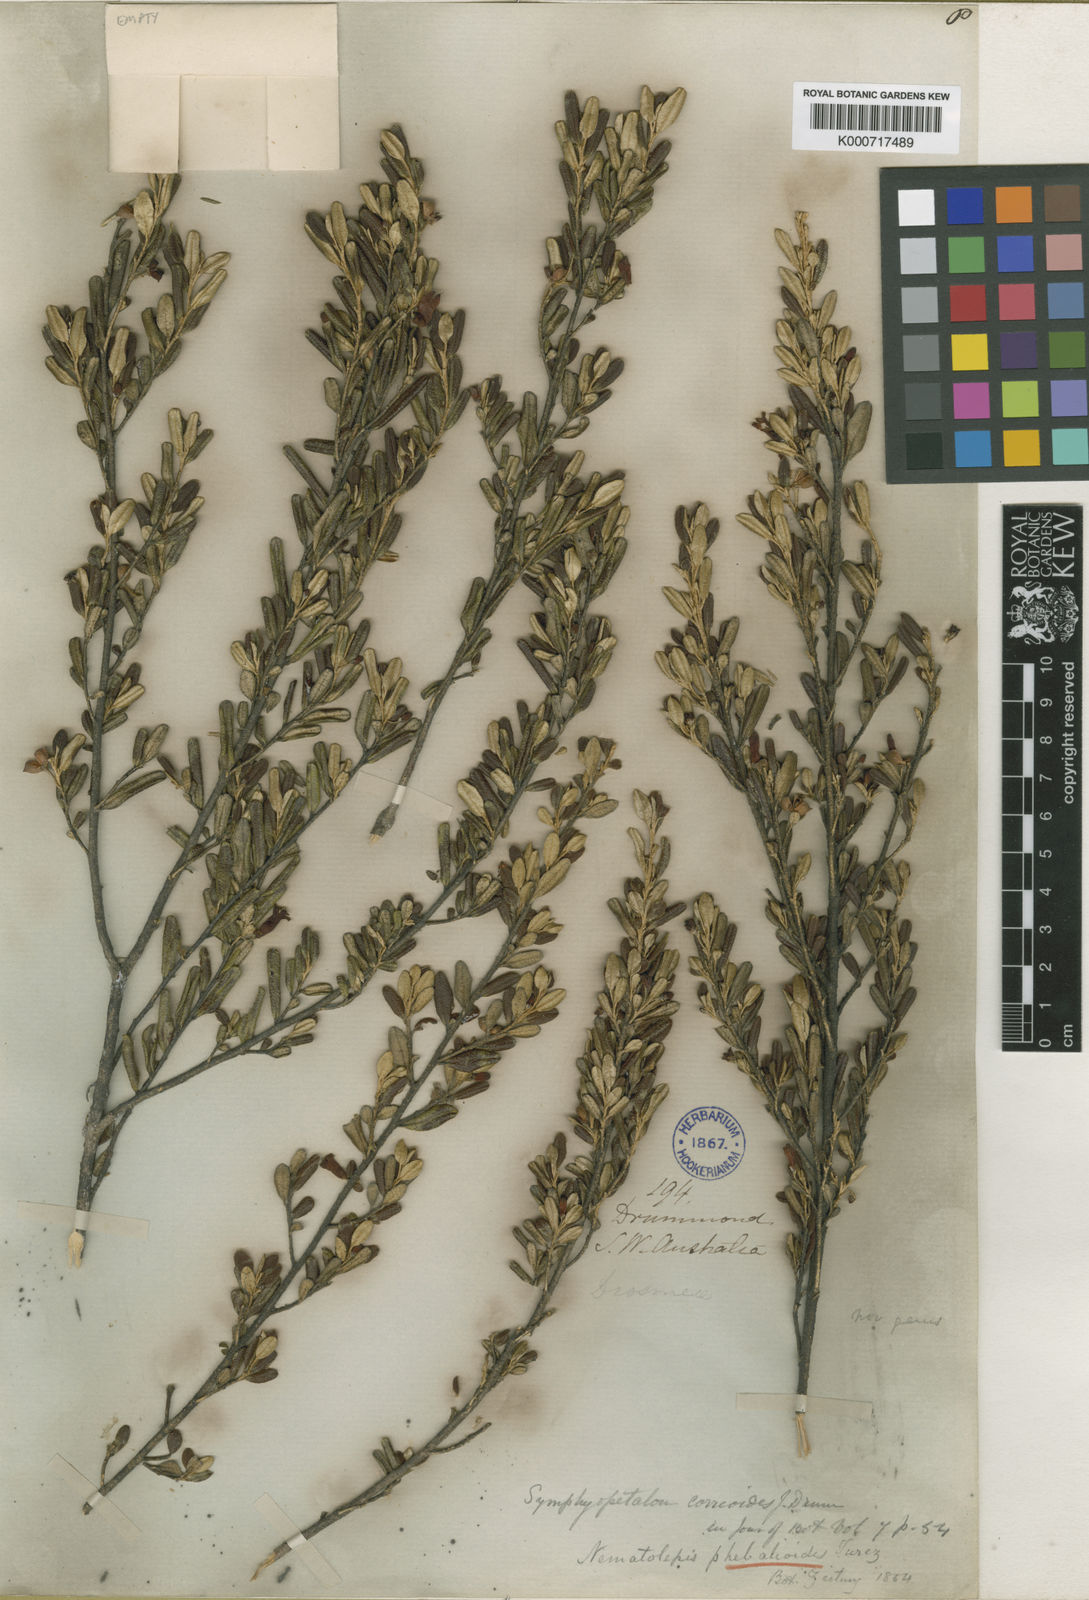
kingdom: Plantae
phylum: Tracheophyta
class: Magnoliopsida
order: Sapindales
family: Rutaceae
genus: Nematolepis
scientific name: Nematolepis phebalioides
